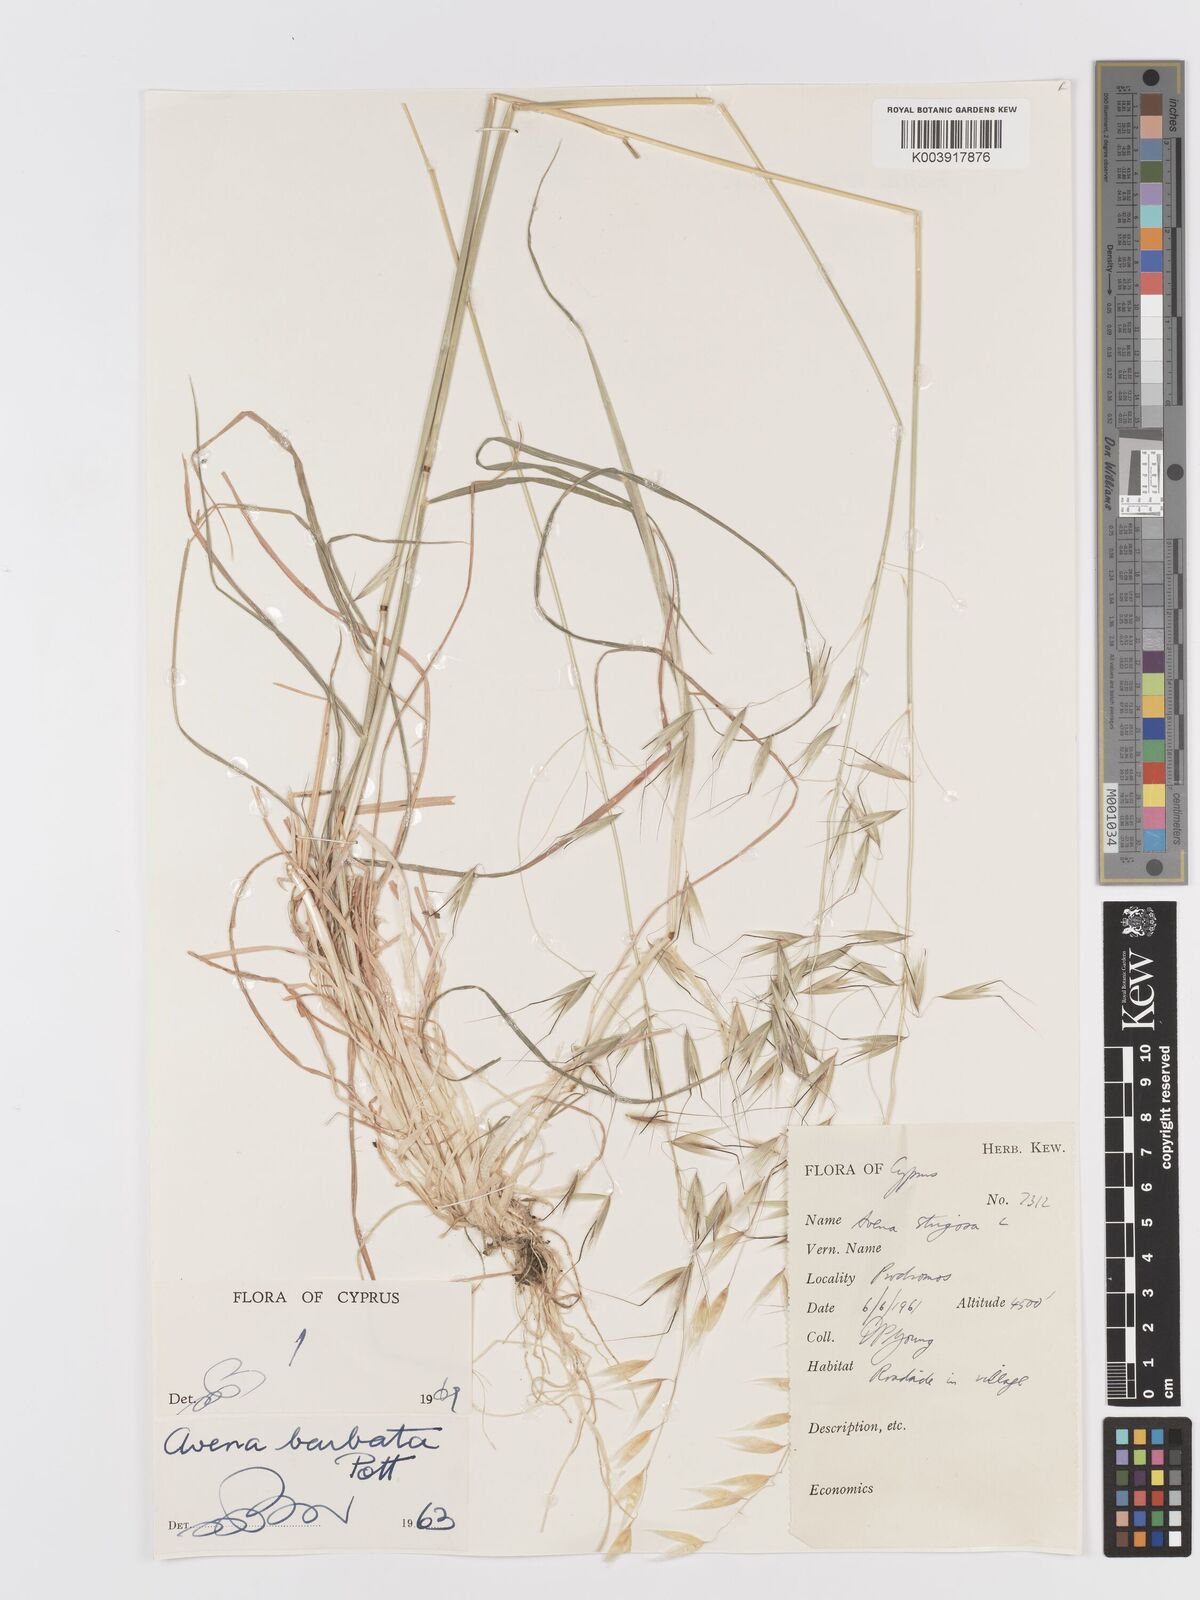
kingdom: Plantae
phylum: Tracheophyta
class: Liliopsida
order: Poales
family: Poaceae
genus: Avena
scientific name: Avena
